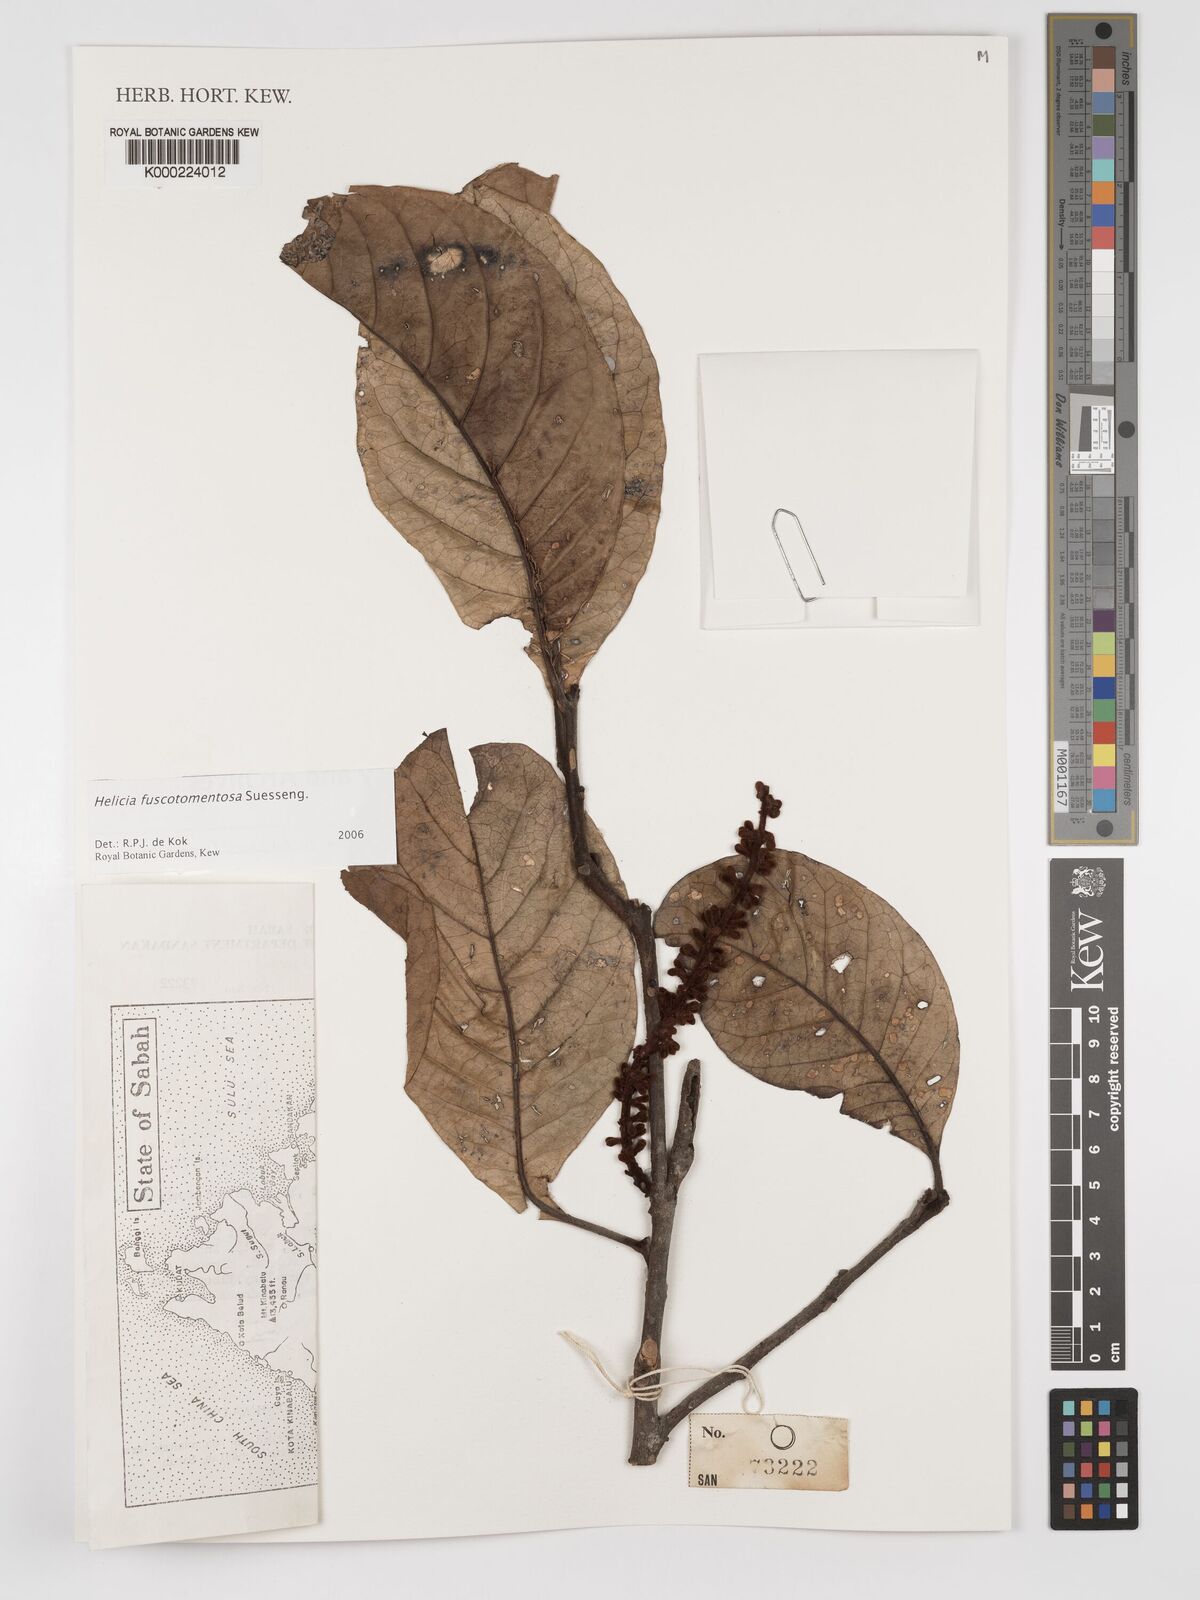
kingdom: Plantae
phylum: Tracheophyta
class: Magnoliopsida
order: Proteales
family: Proteaceae
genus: Helicia
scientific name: Helicia fuscotomentosa
